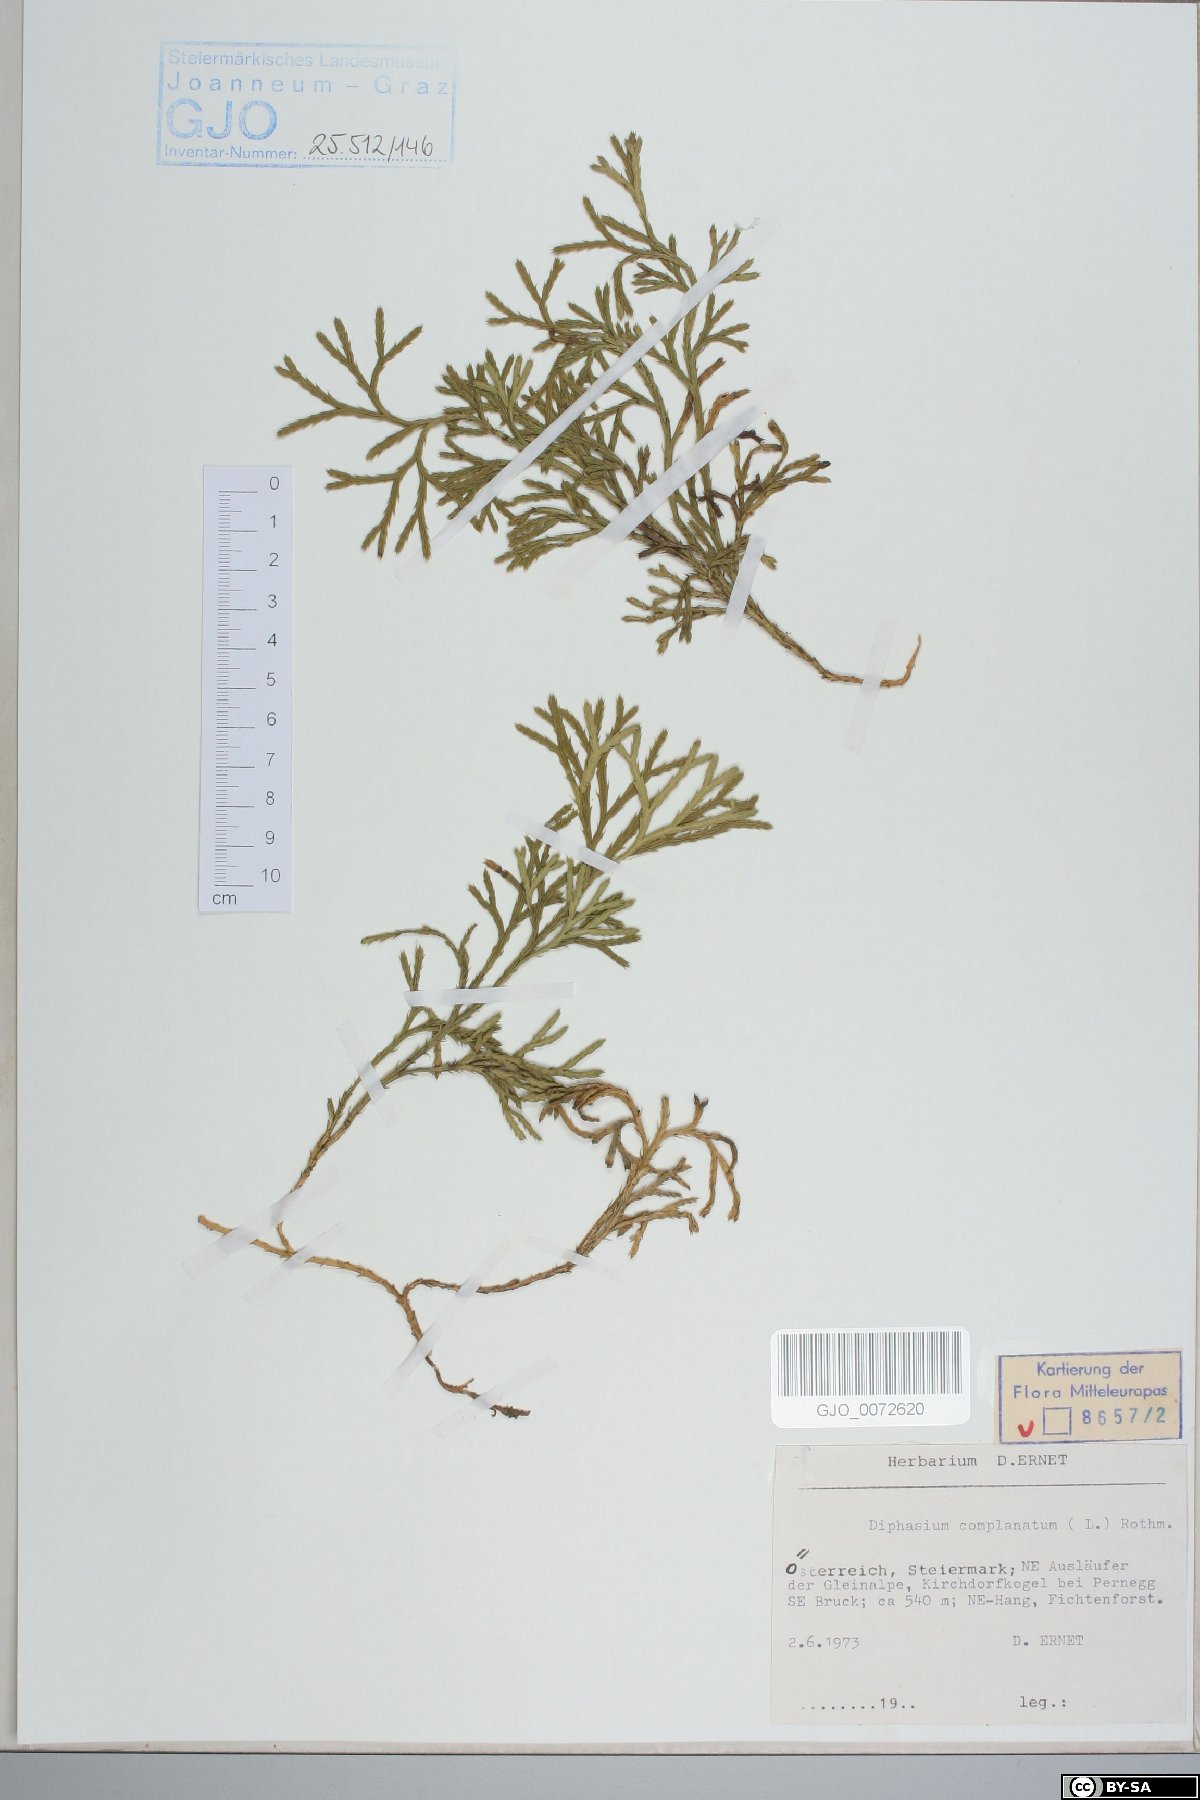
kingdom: Plantae
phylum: Tracheophyta
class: Lycopodiopsida
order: Lycopodiales
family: Lycopodiaceae
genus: Diphasiastrum
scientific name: Diphasiastrum complanatum
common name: Northern running-pine
